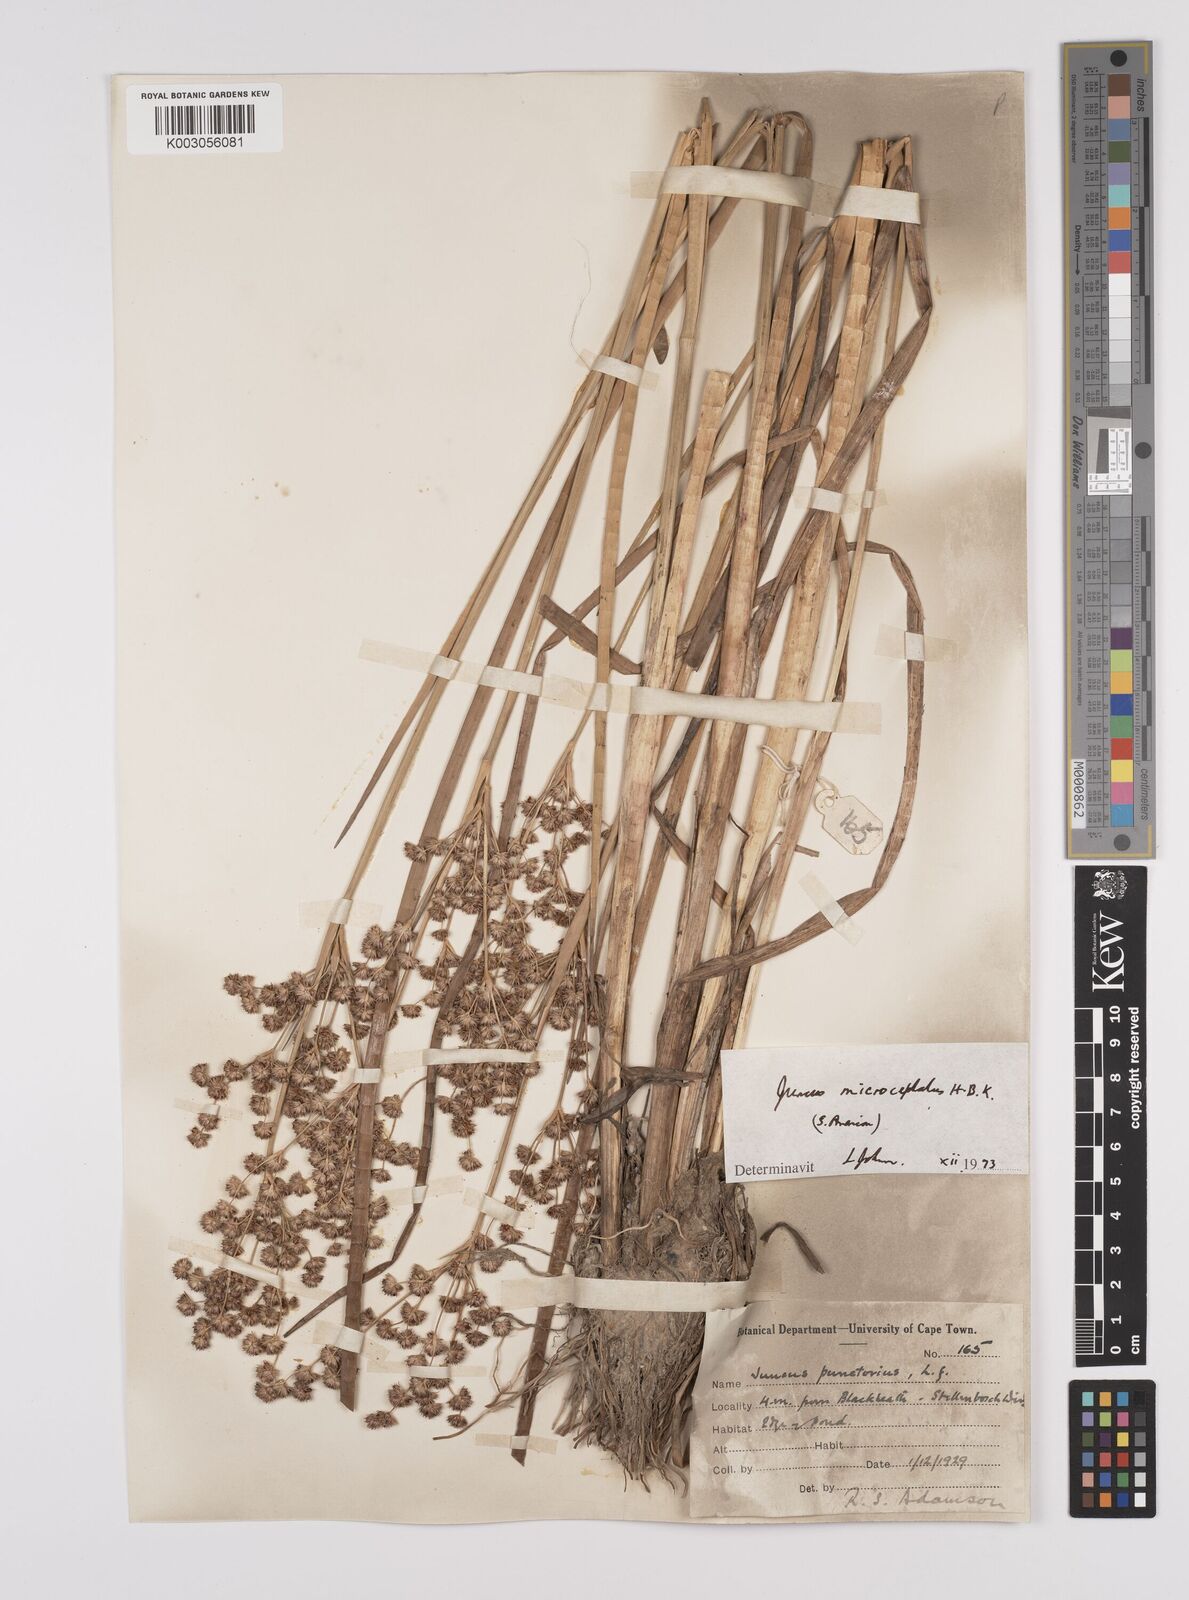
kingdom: Plantae
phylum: Tracheophyta
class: Liliopsida
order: Poales
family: Juncaceae
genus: Juncus
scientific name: Juncus microcephalus
